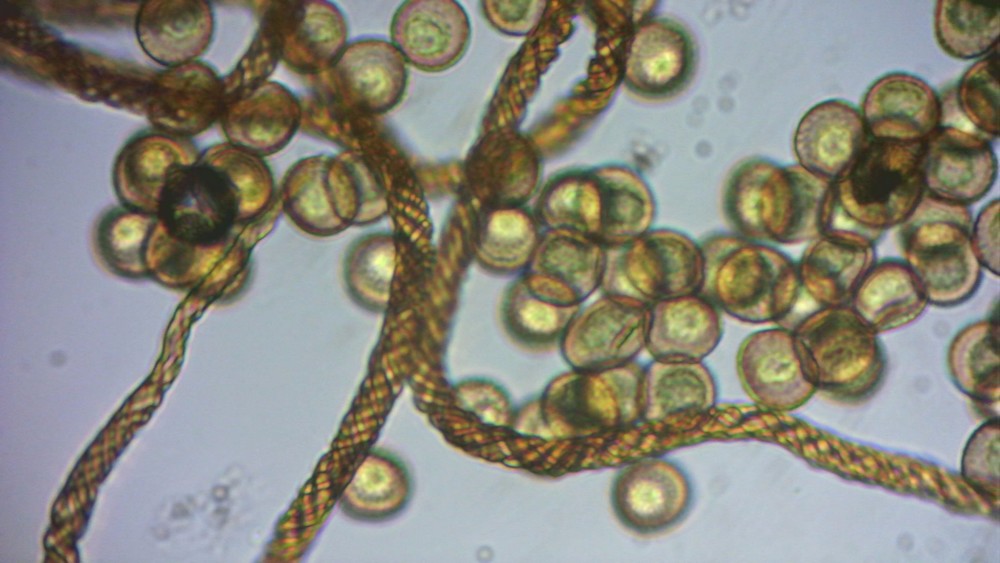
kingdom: Protozoa
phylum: Mycetozoa
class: Myxomycetes
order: Trichiales
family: Trichiaceae
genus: Metatrichia
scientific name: Metatrichia floriformis
